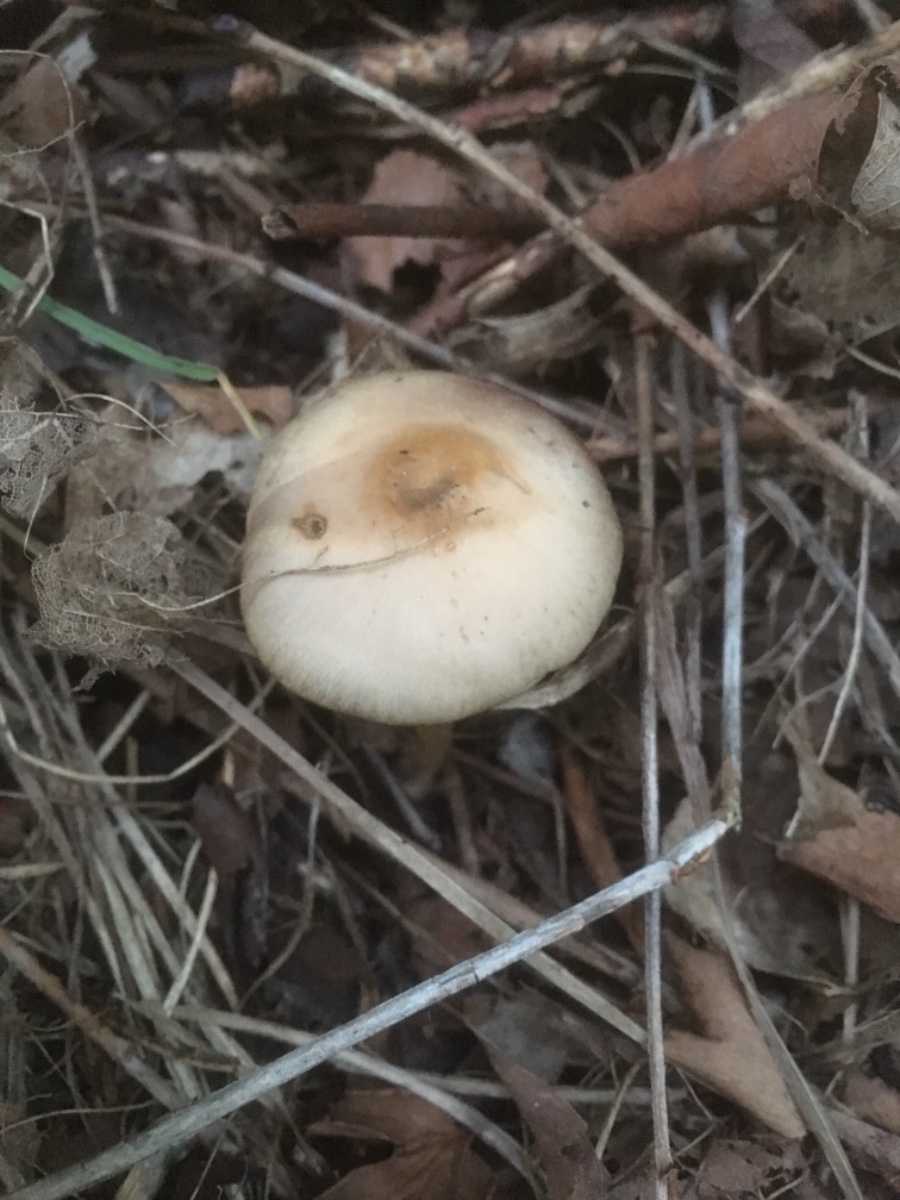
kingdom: Fungi
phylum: Basidiomycota
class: Agaricomycetes
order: Agaricales
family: Psathyrellaceae
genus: Psathyrella
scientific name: Psathyrella
